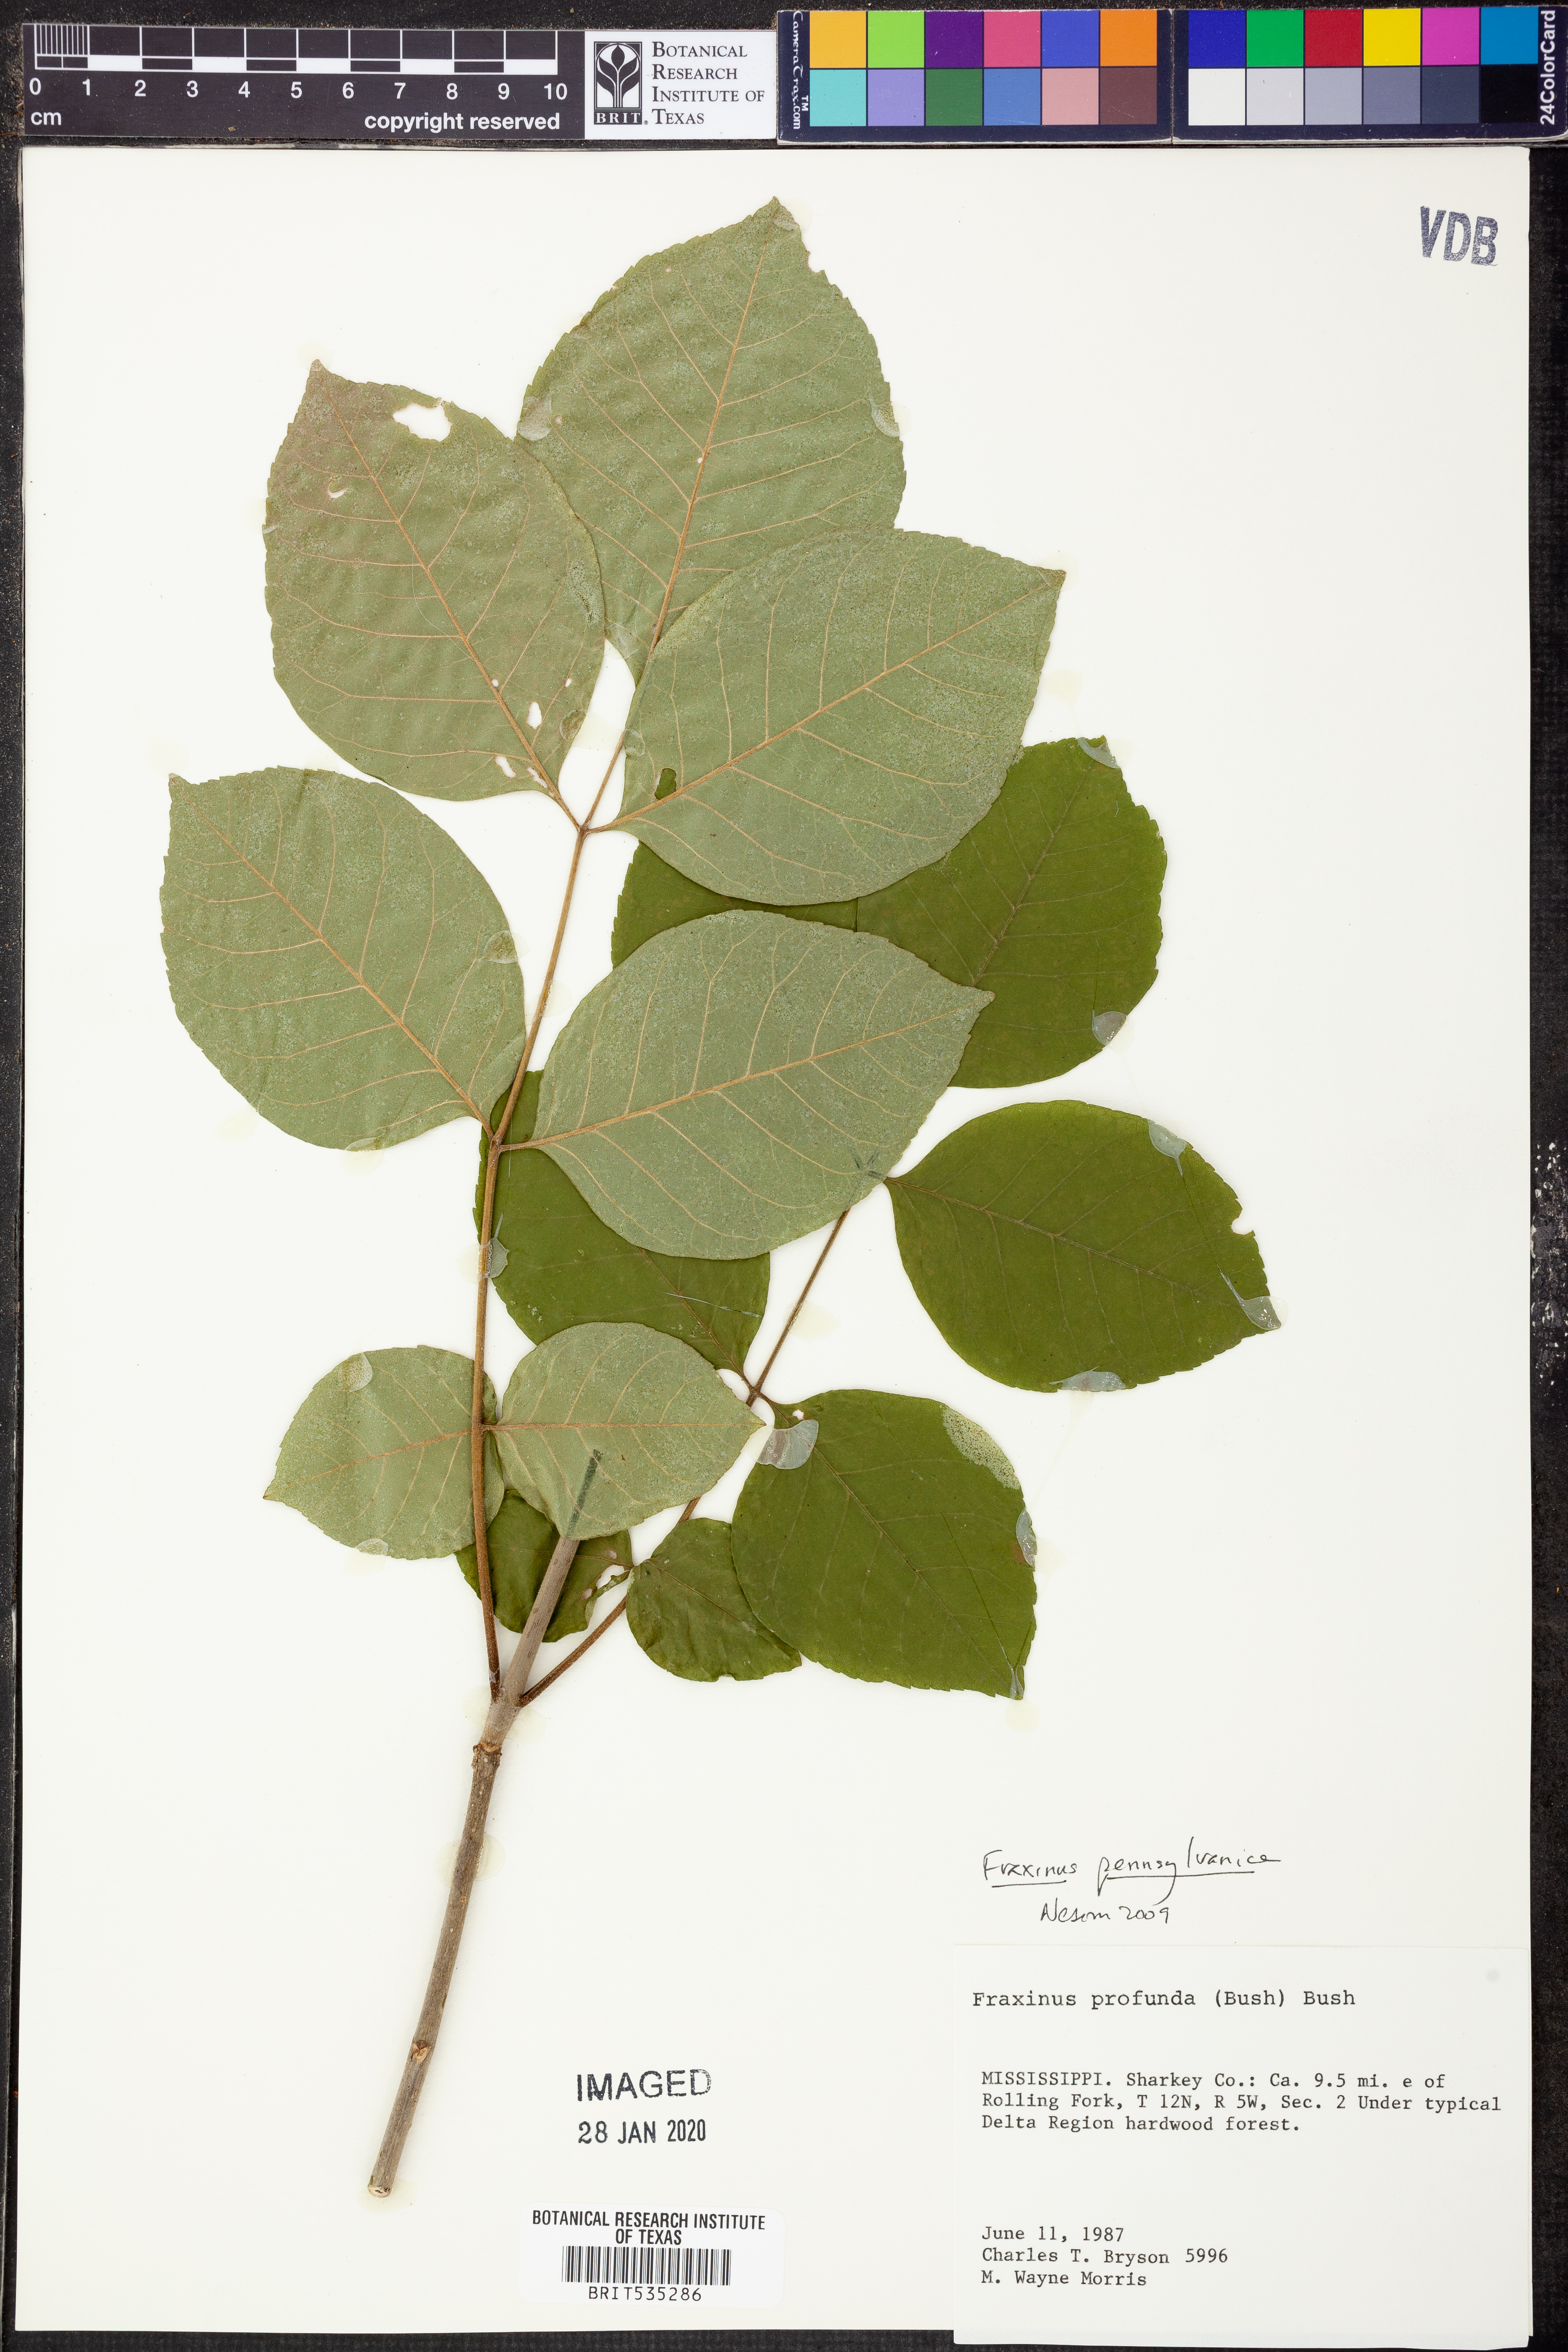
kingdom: Plantae
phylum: Tracheophyta
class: Magnoliopsida
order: Lamiales
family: Oleaceae
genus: Fraxinus
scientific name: Fraxinus pennsylvanica
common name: Green ash
